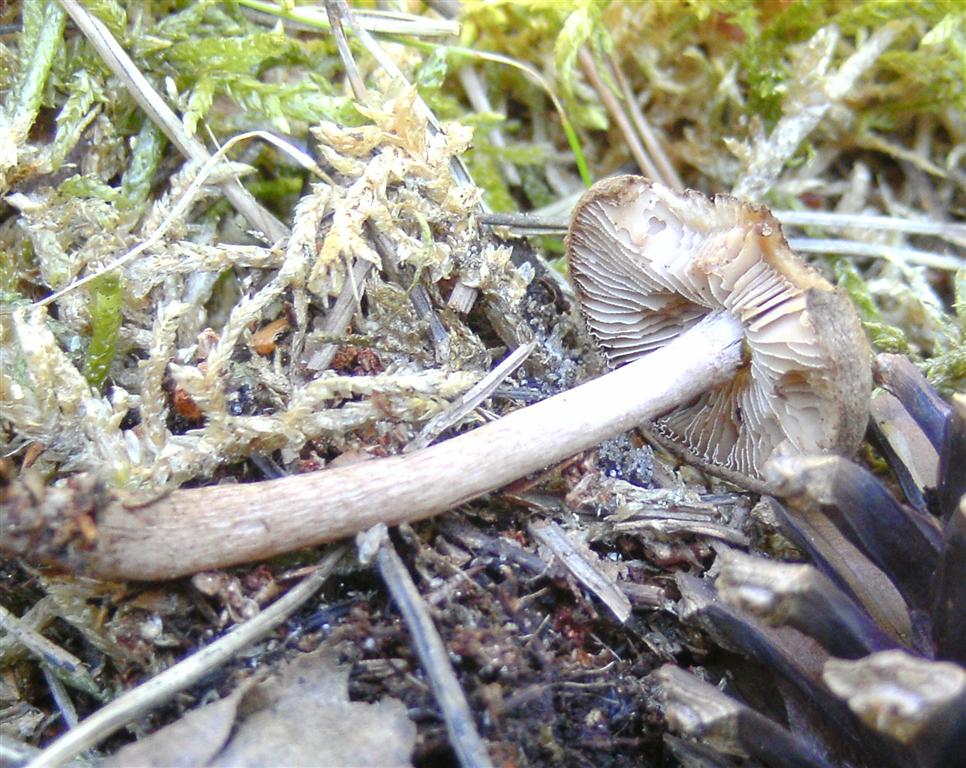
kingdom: Fungi
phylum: Basidiomycota
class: Agaricomycetes
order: Agaricales
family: Inocybaceae
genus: Inocybe
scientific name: Inocybe lanuginosa
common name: uldskællet trævlhat
